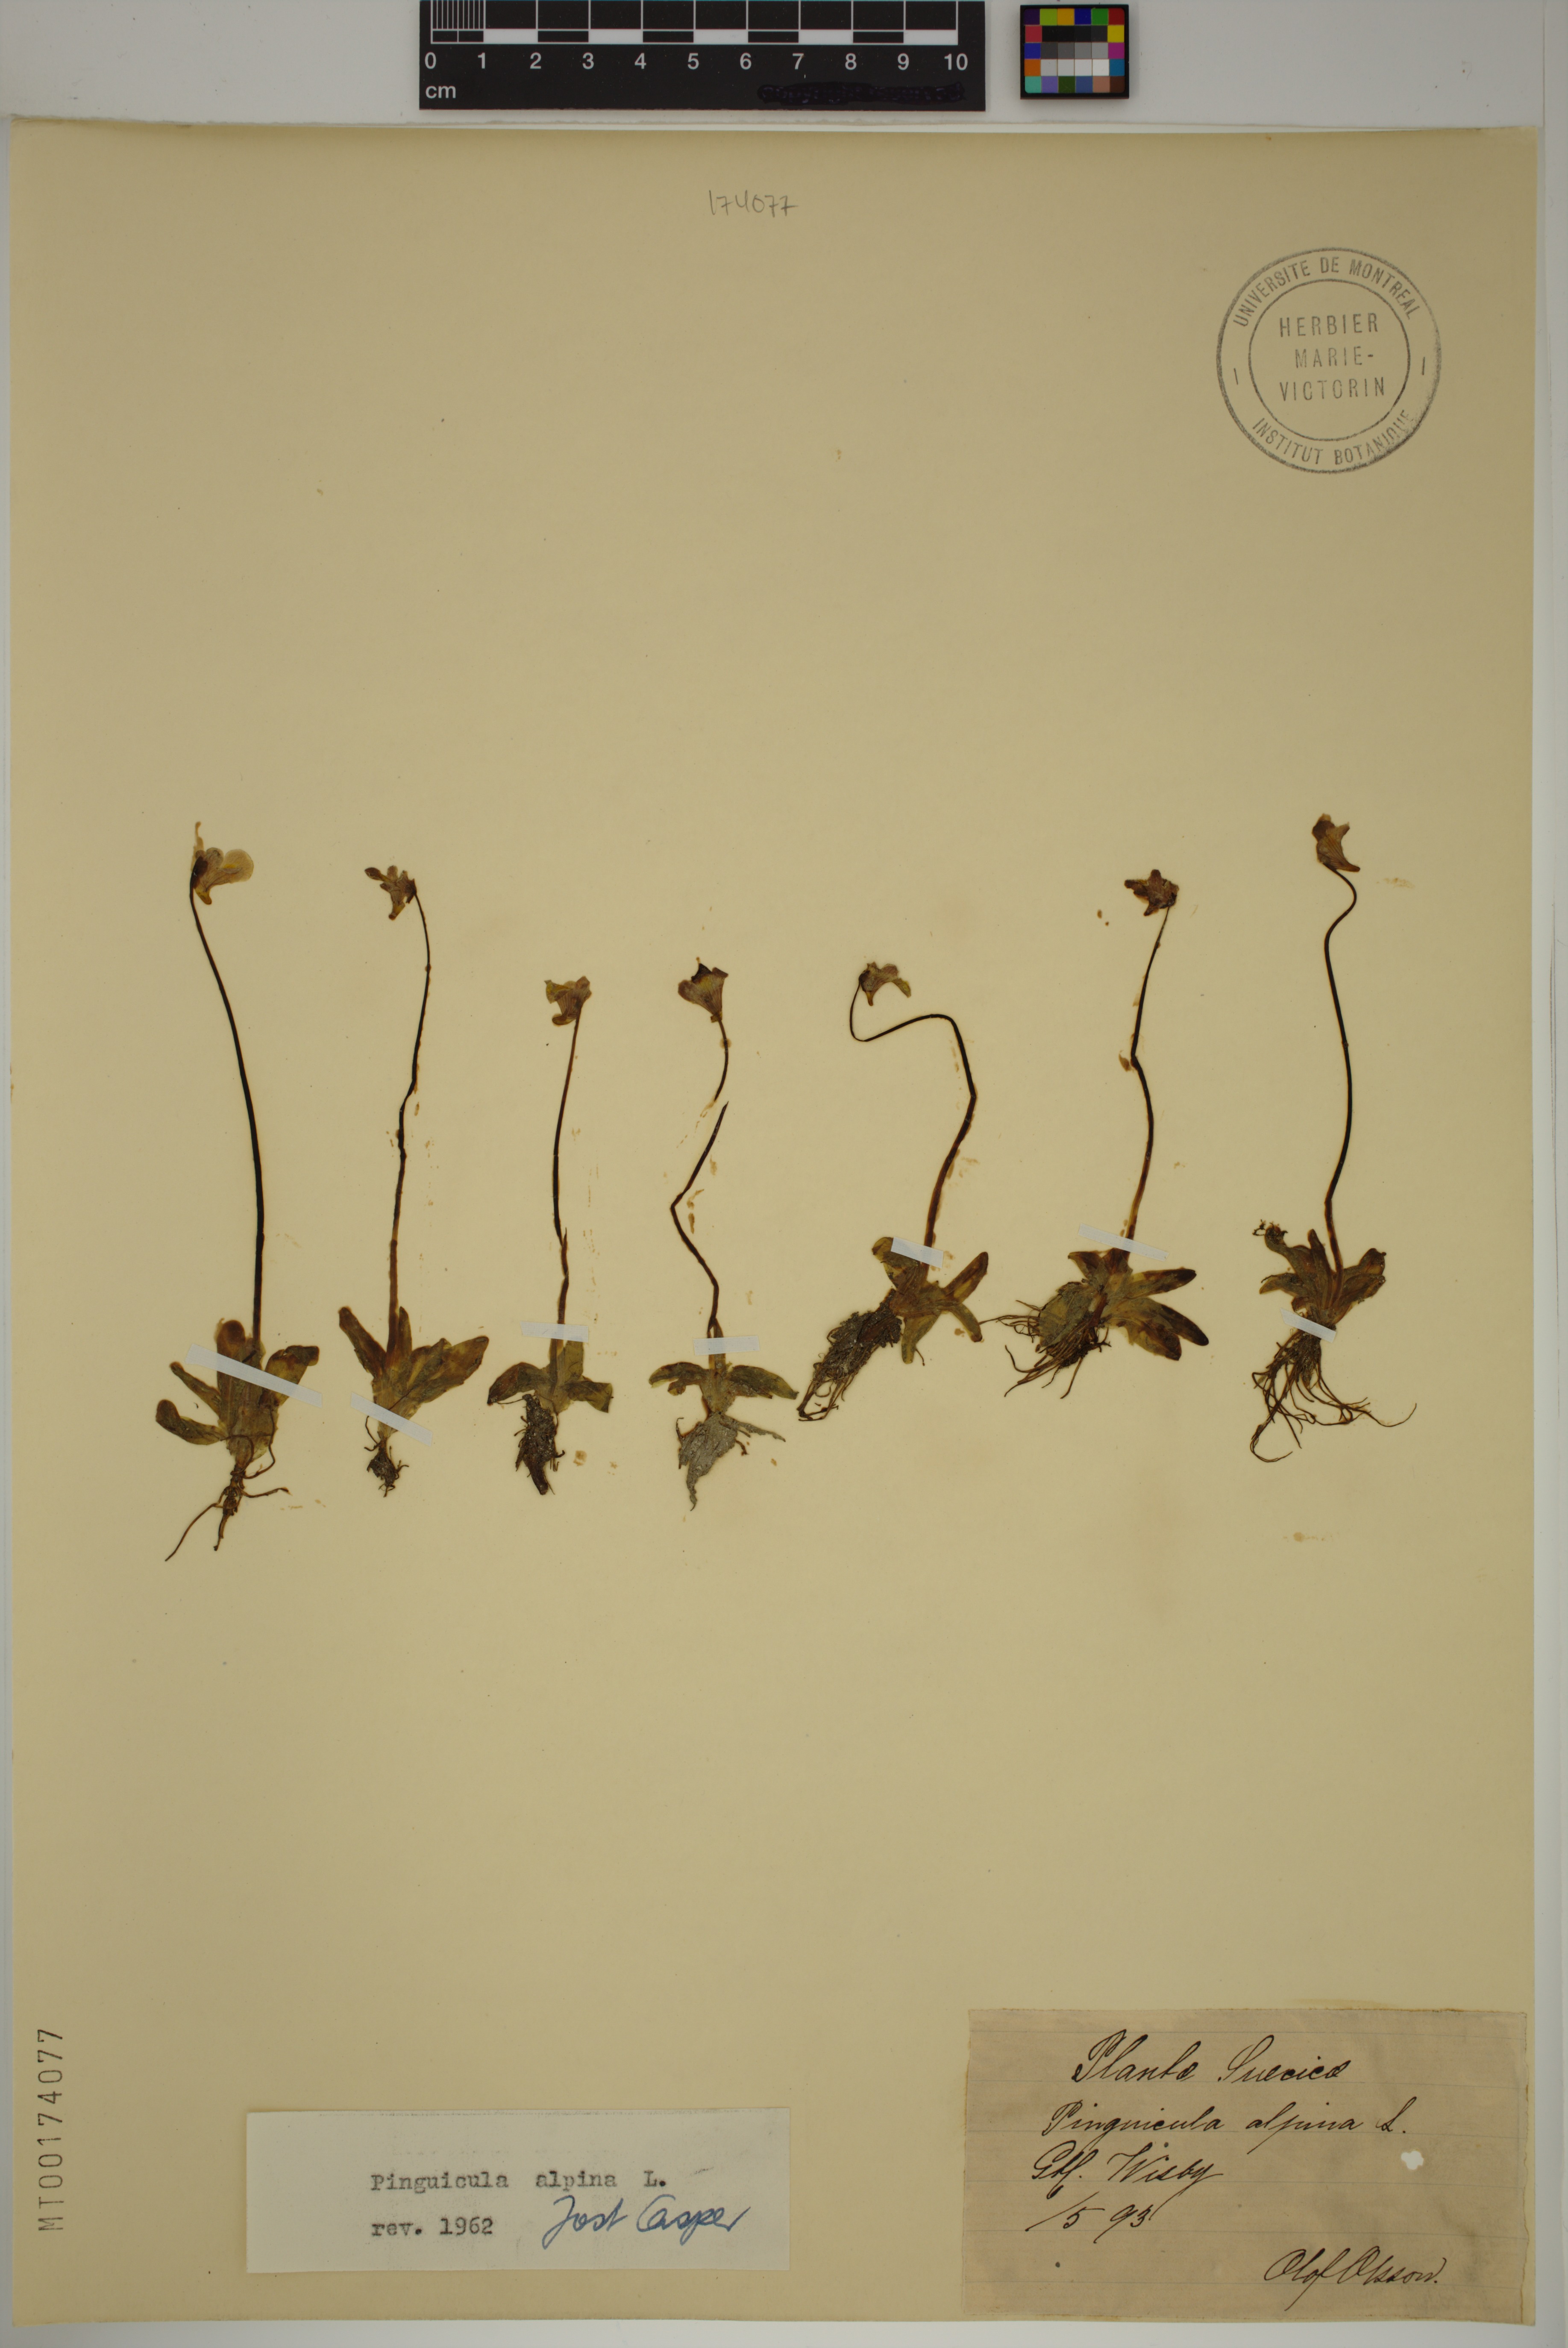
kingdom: Plantae
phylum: Tracheophyta
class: Magnoliopsida
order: Lamiales
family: Lentibulariaceae
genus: Pinguicula
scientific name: Pinguicula alpina
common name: Alpine butterwort
